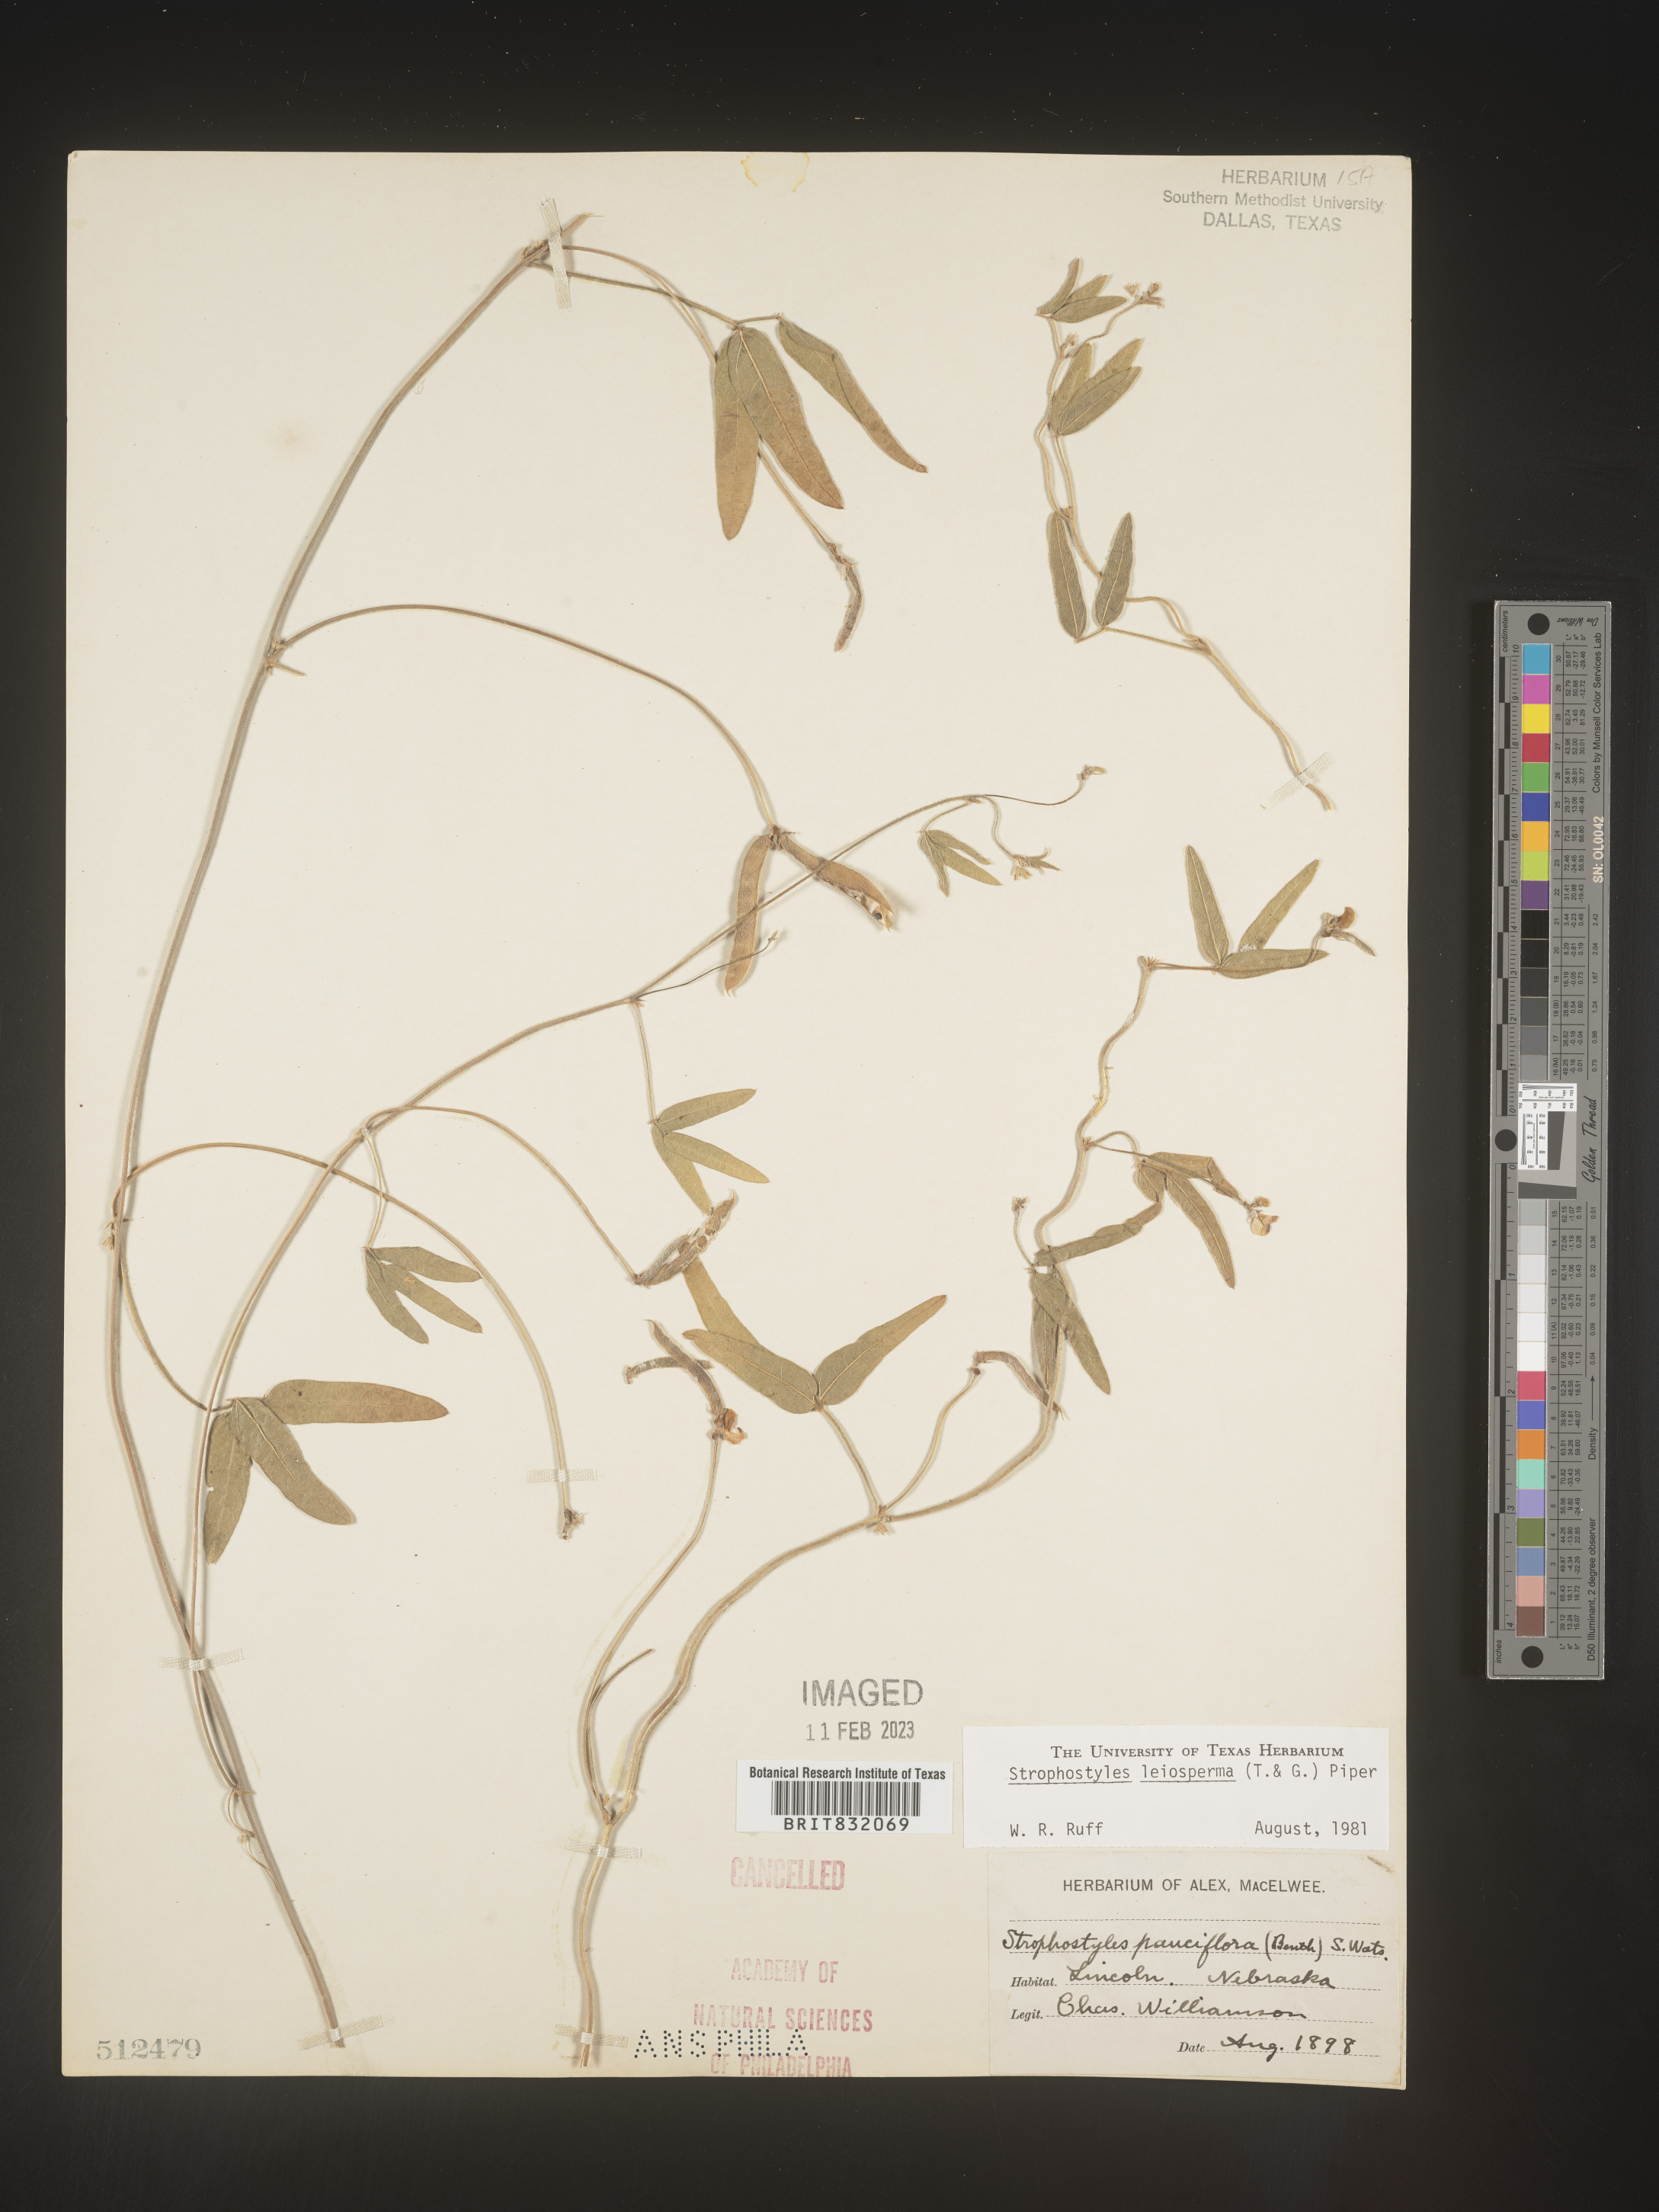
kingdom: Plantae
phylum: Tracheophyta
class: Magnoliopsida
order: Fabales
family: Fabaceae
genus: Strophostyles
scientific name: Strophostyles leiosperma
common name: Smooth-seed wild bean
